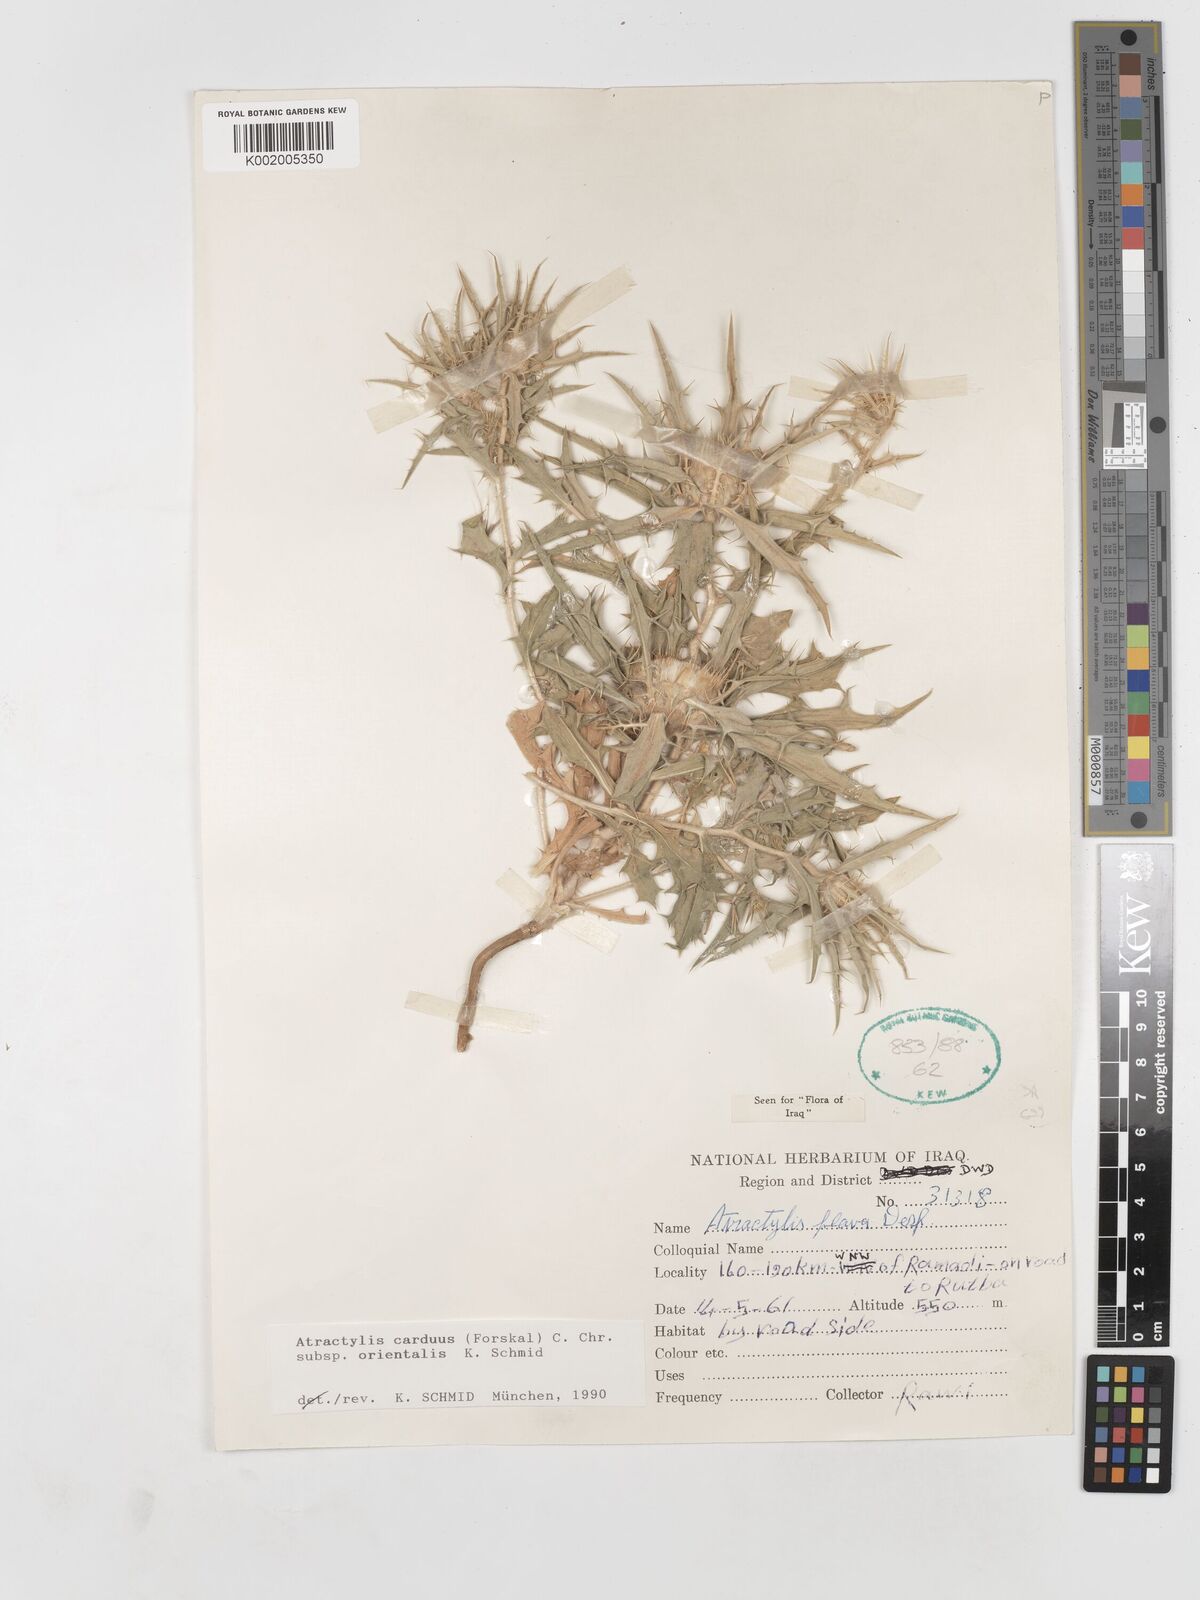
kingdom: Plantae
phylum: Tracheophyta
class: Magnoliopsida
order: Asterales
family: Asteraceae
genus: Atractylis
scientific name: Atractylis carduus
